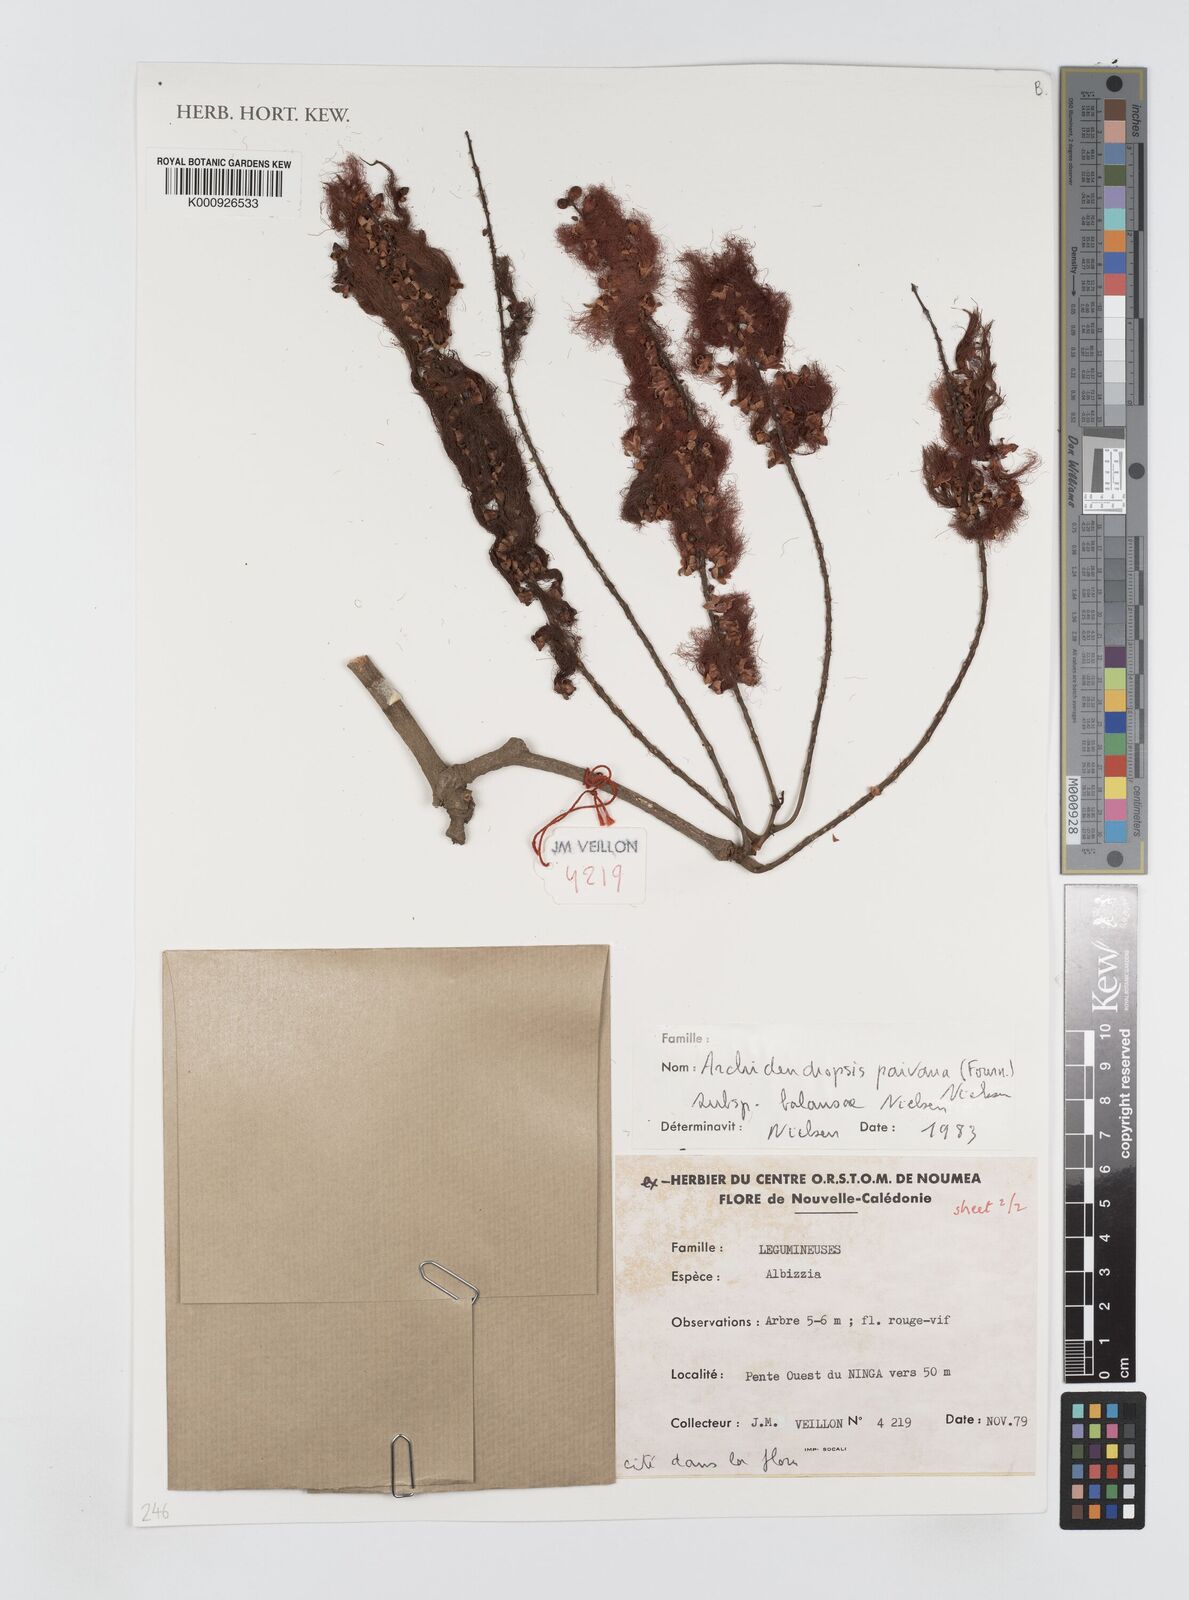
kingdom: Plantae
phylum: Tracheophyta
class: Magnoliopsida
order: Fabales
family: Fabaceae
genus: Archidendropsis
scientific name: Archidendropsis paivana
